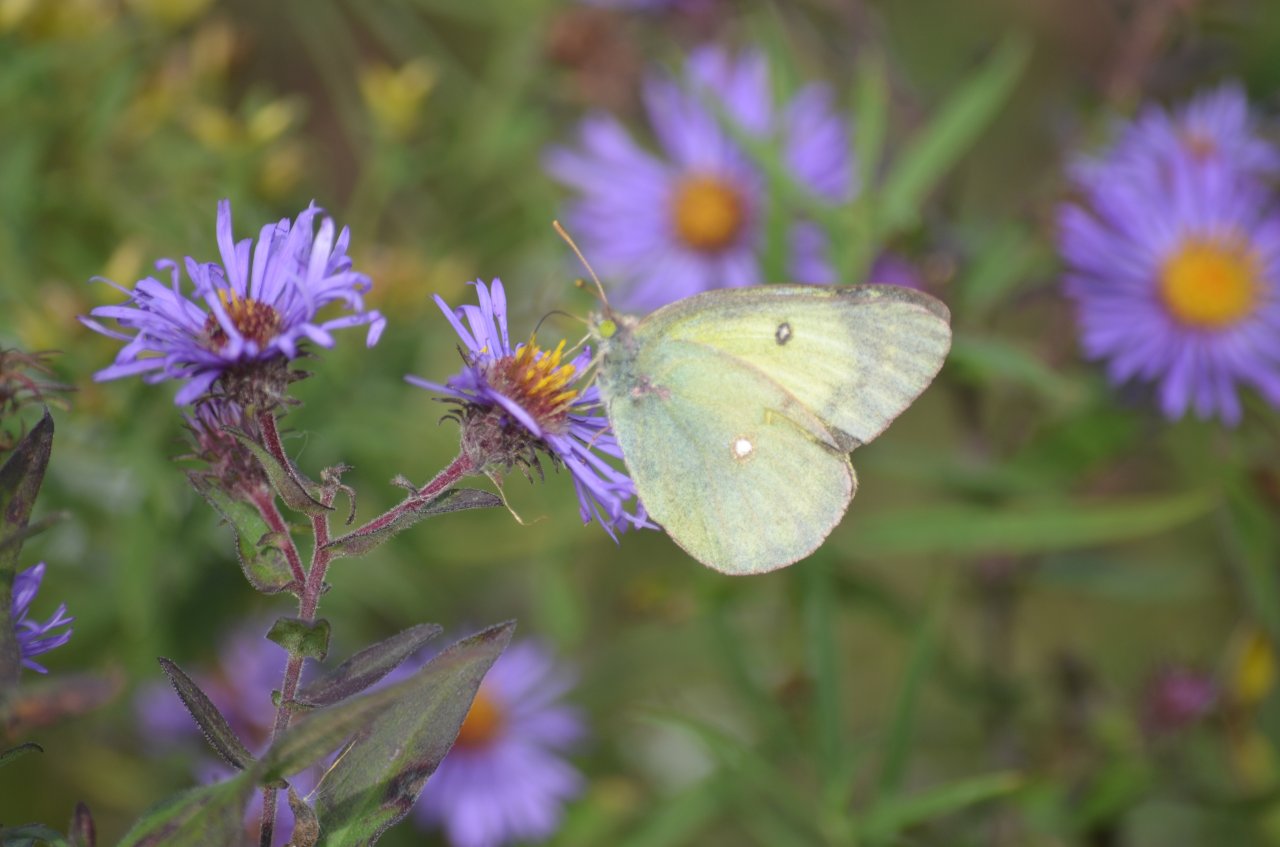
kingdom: Animalia
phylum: Arthropoda
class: Insecta
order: Lepidoptera
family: Pieridae
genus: Colias
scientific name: Colias philodice
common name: Clouded Sulphur
